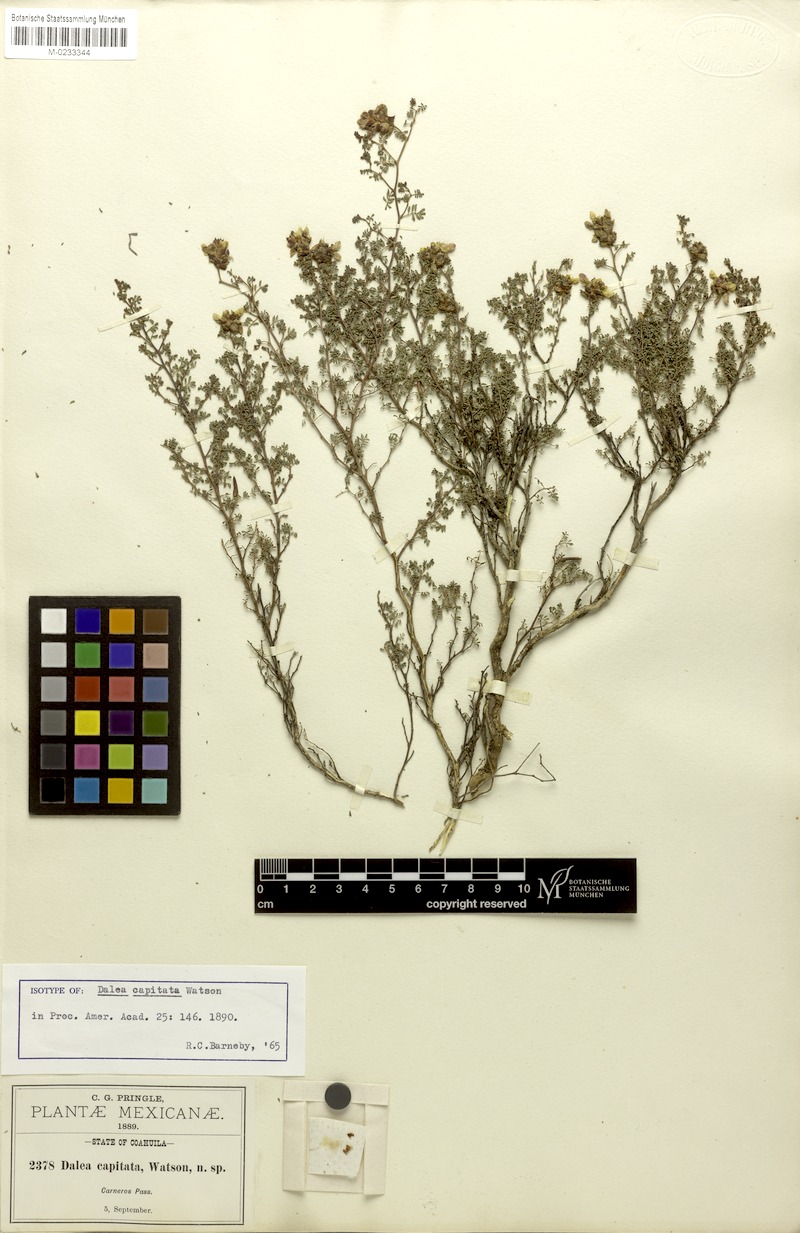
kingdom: Plantae
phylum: Tracheophyta
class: Magnoliopsida
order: Fabales
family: Fabaceae
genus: Dalea
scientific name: Dalea capitata
